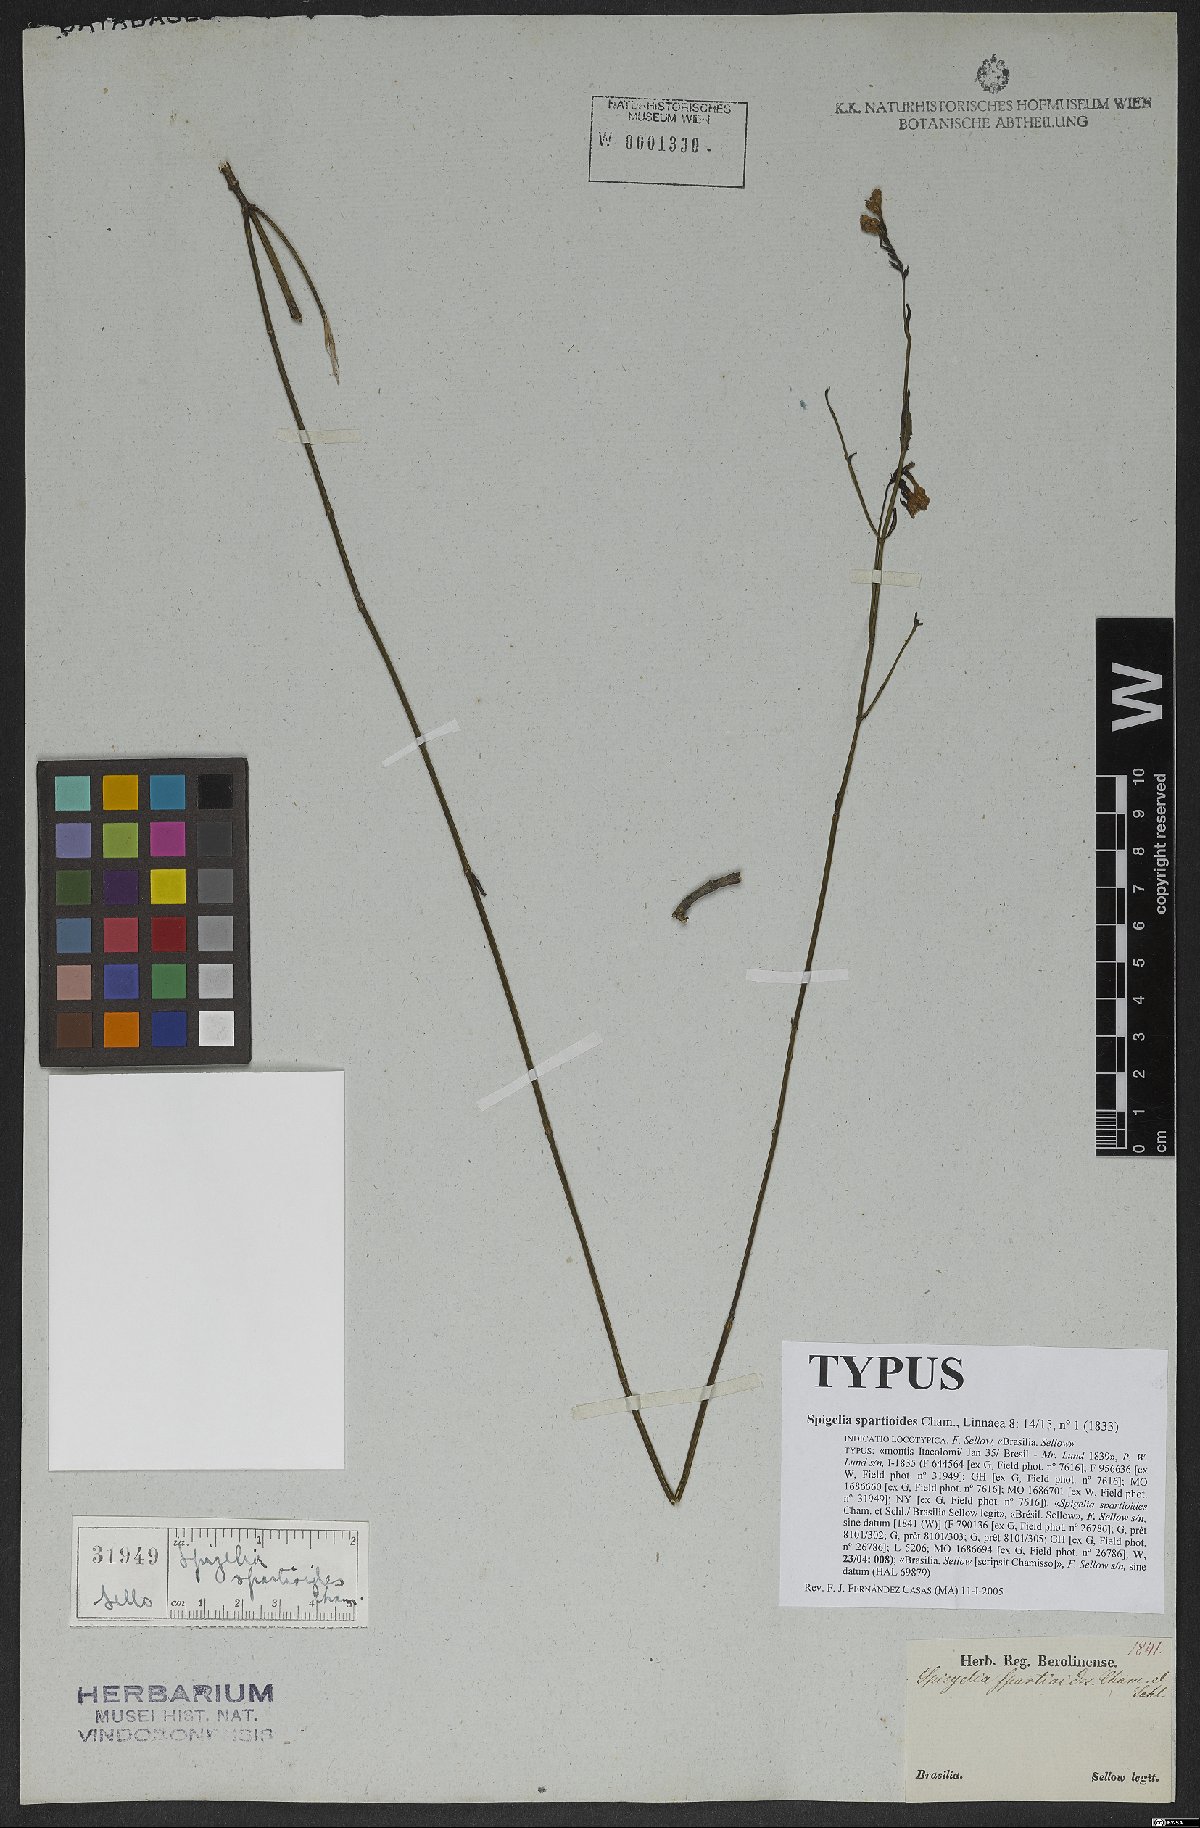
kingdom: Plantae
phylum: Tracheophyta
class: Magnoliopsida
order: Gentianales
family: Loganiaceae
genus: Spigelia
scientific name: Spigelia spartioides
